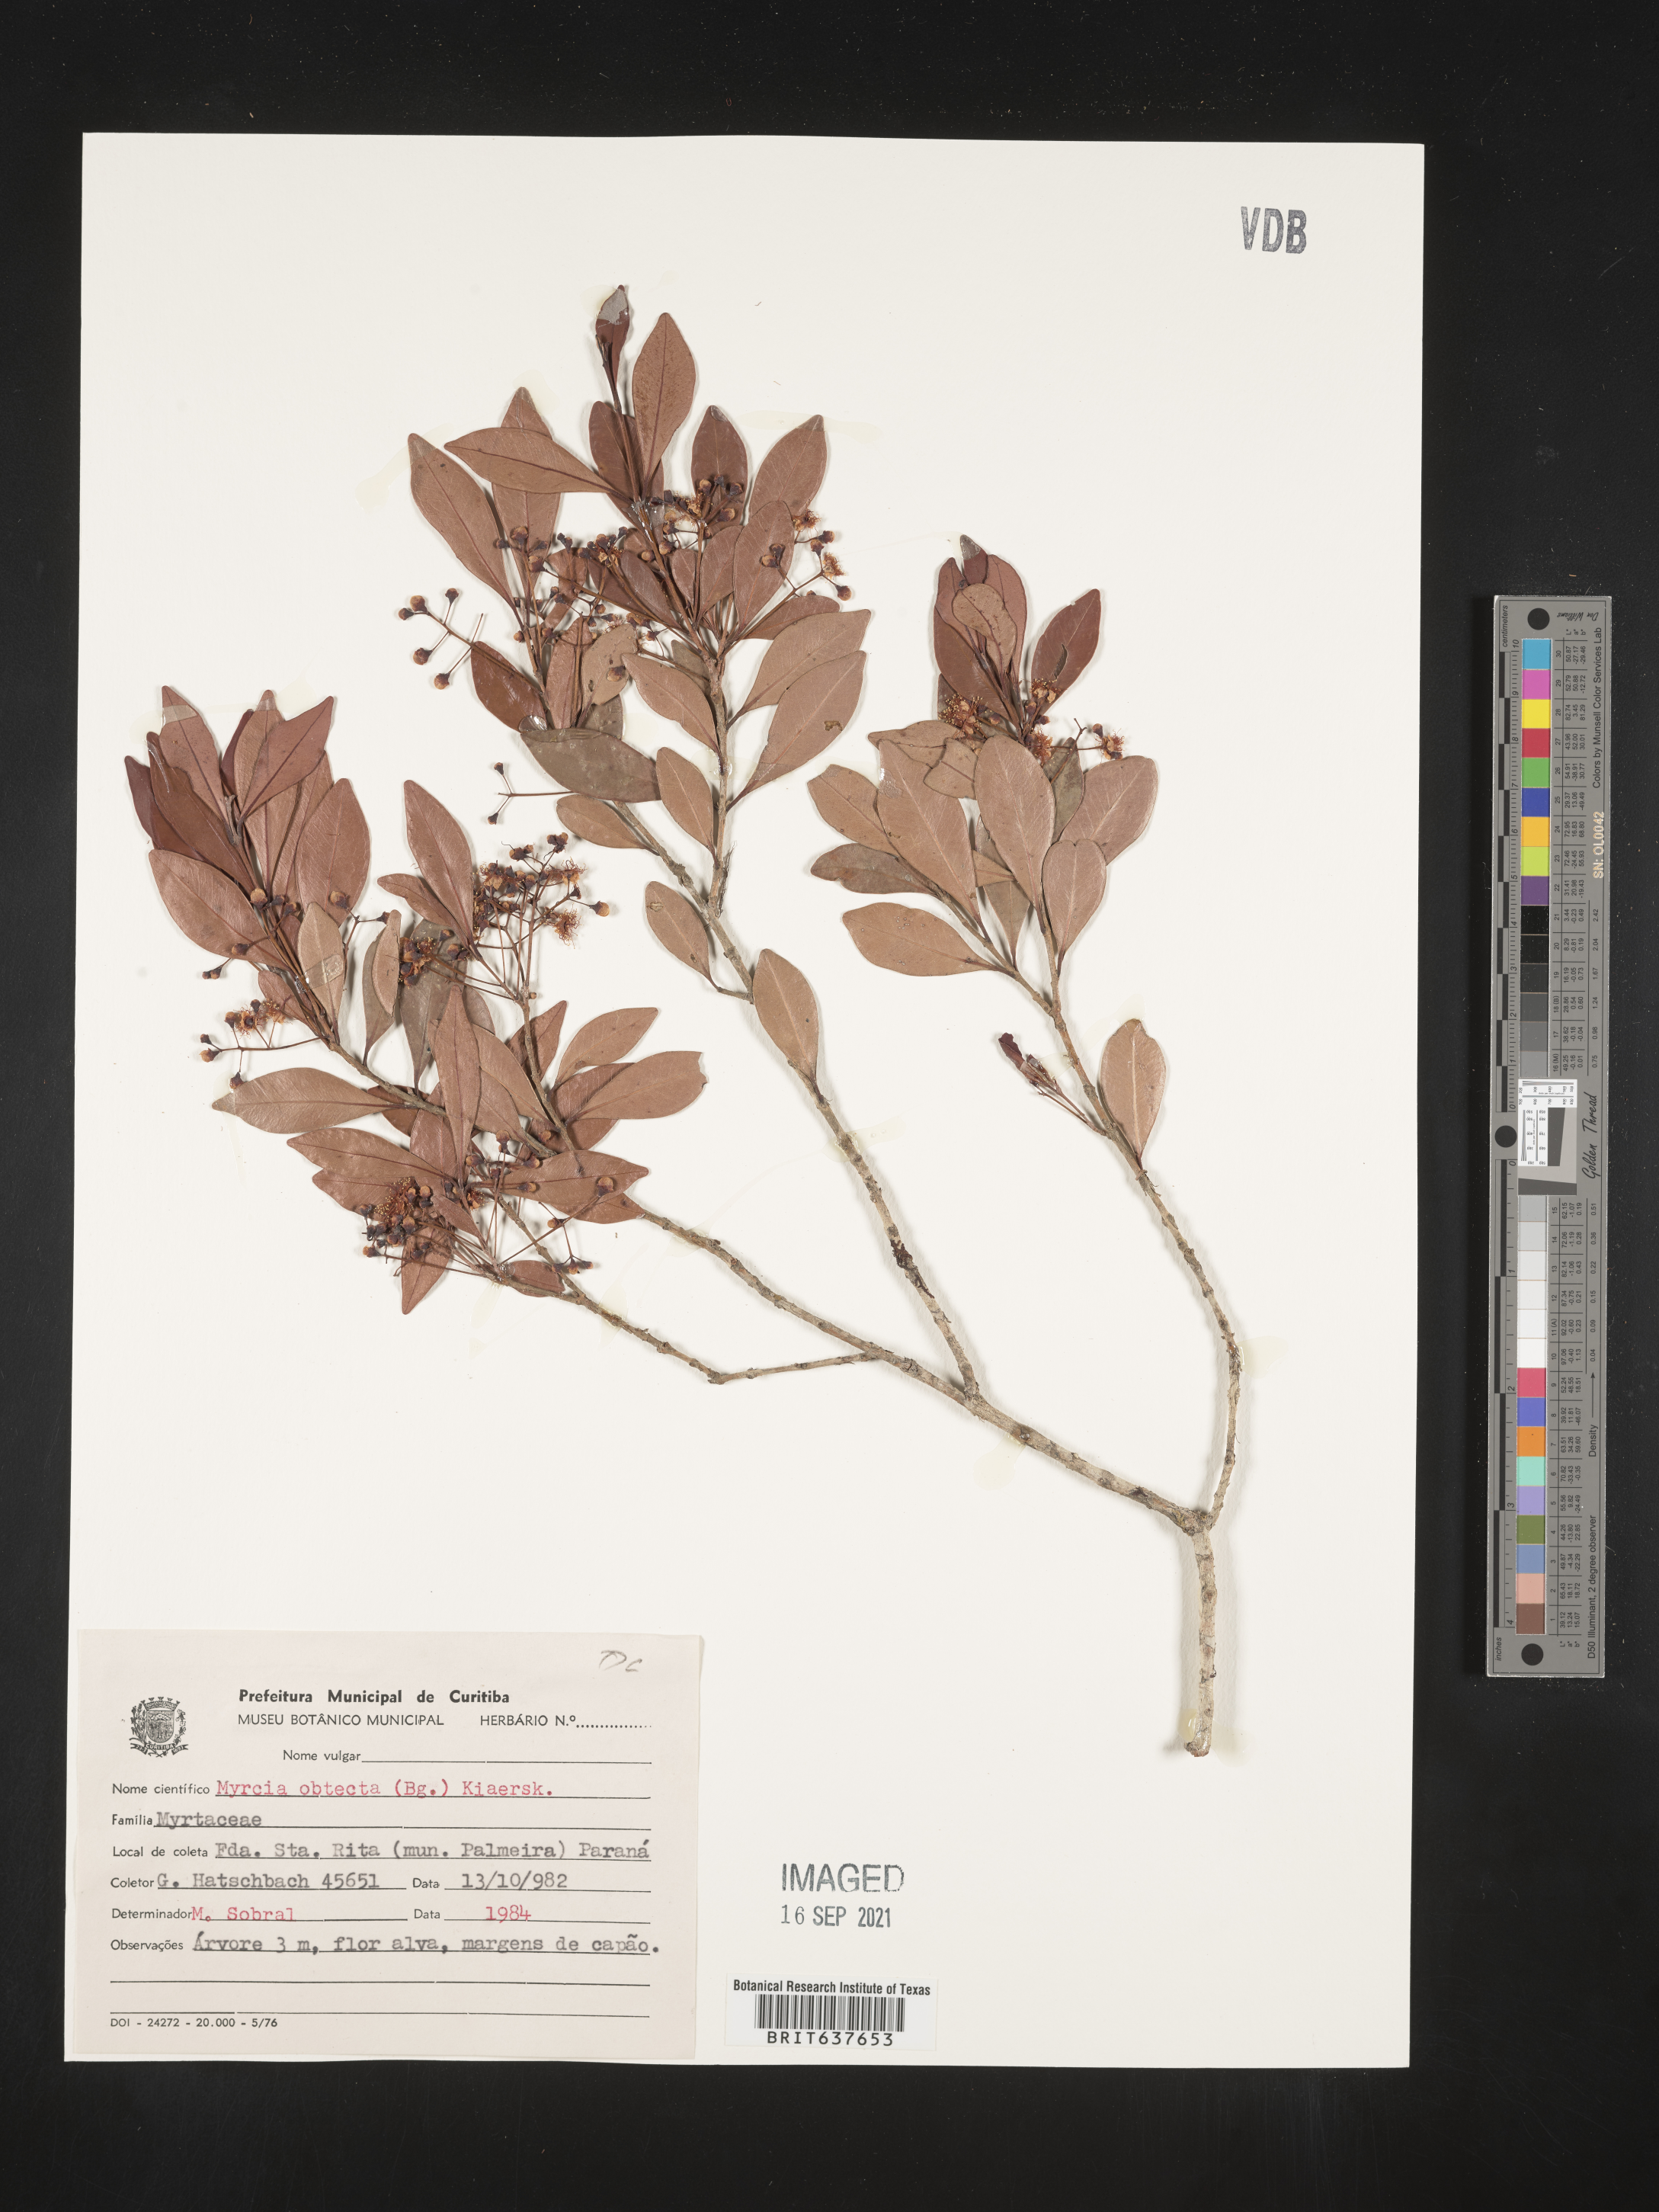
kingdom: Plantae
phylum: Tracheophyta
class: Magnoliopsida
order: Myrtales
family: Myrtaceae
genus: Myrcia
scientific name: Myrcia
